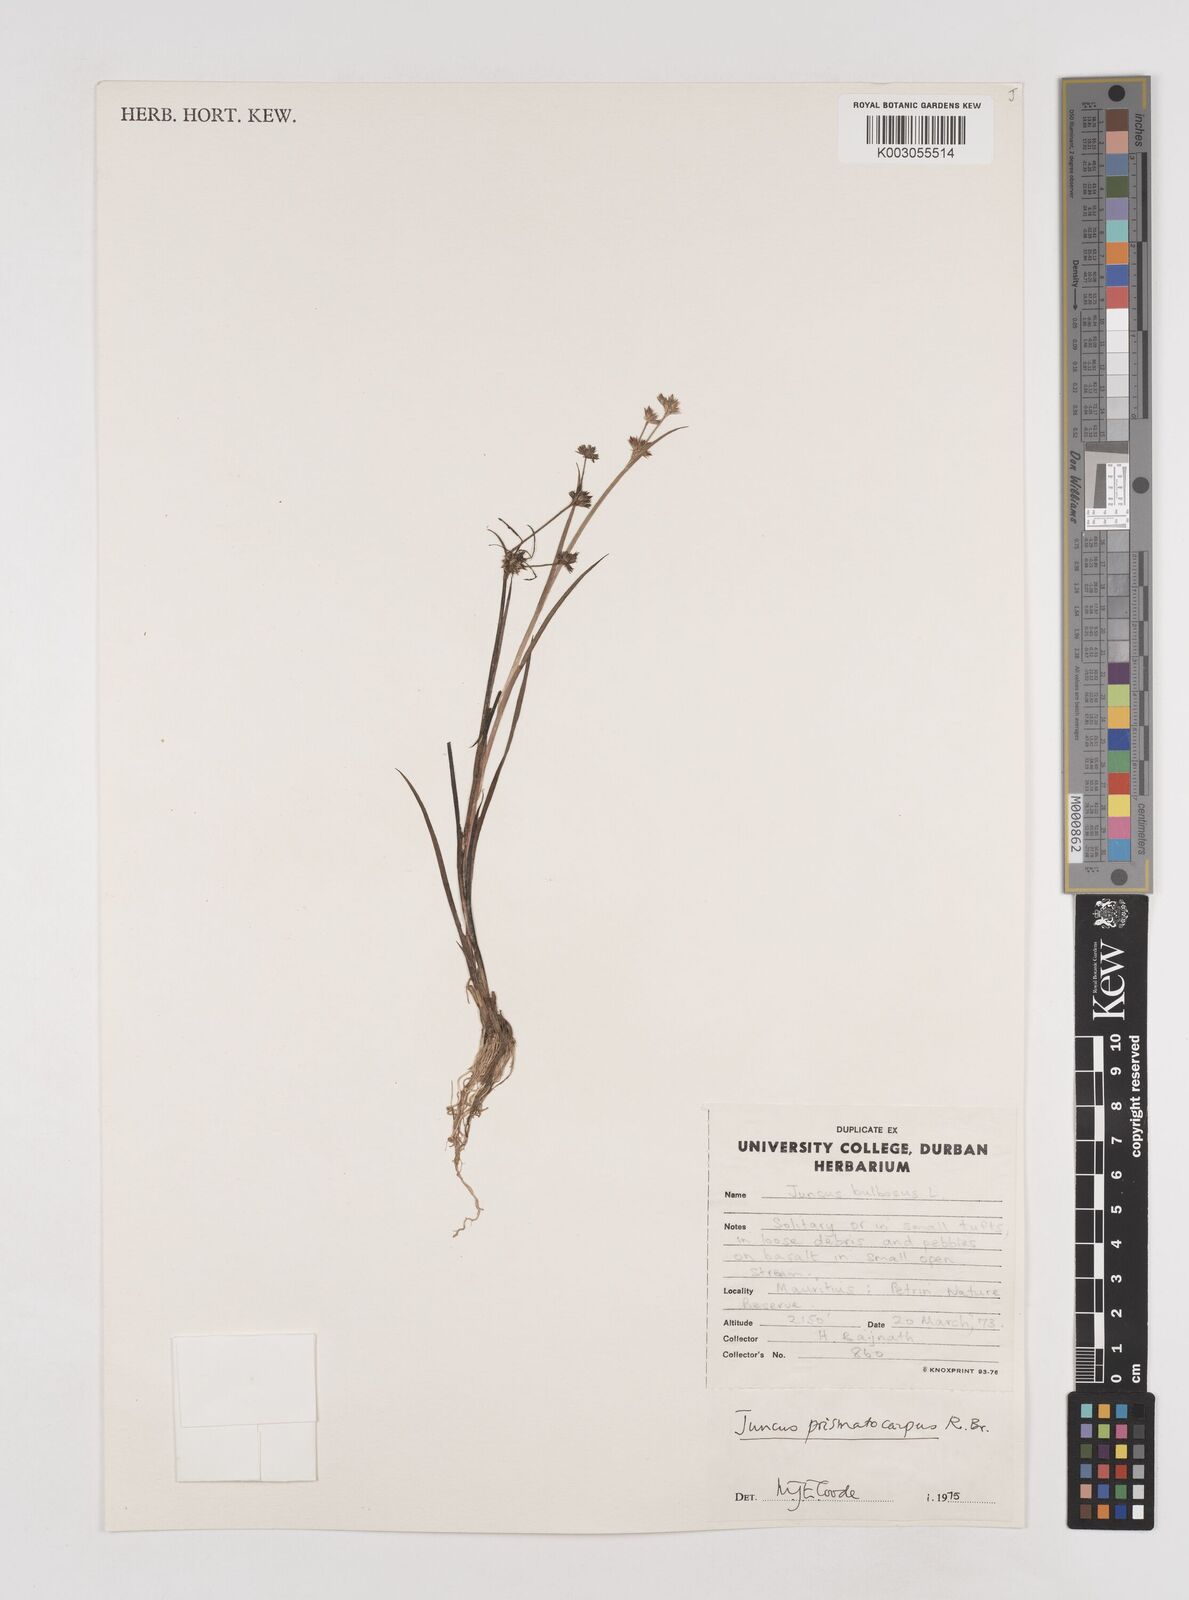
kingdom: Plantae
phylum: Tracheophyta
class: Liliopsida
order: Poales
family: Juncaceae
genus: Juncus
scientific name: Juncus prismatocarpus
